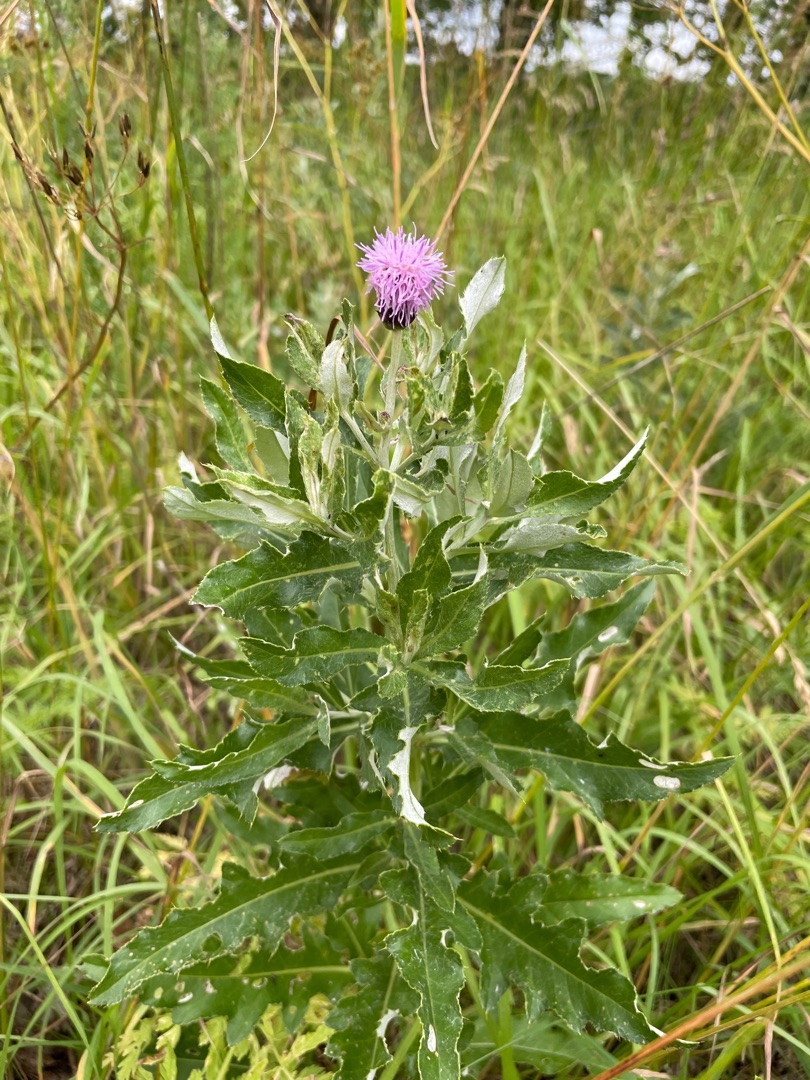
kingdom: Plantae
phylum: Tracheophyta
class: Magnoliopsida
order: Asterales
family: Asteraceae
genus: Cirsium
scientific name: Cirsium arvense
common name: Ager-tidsel
